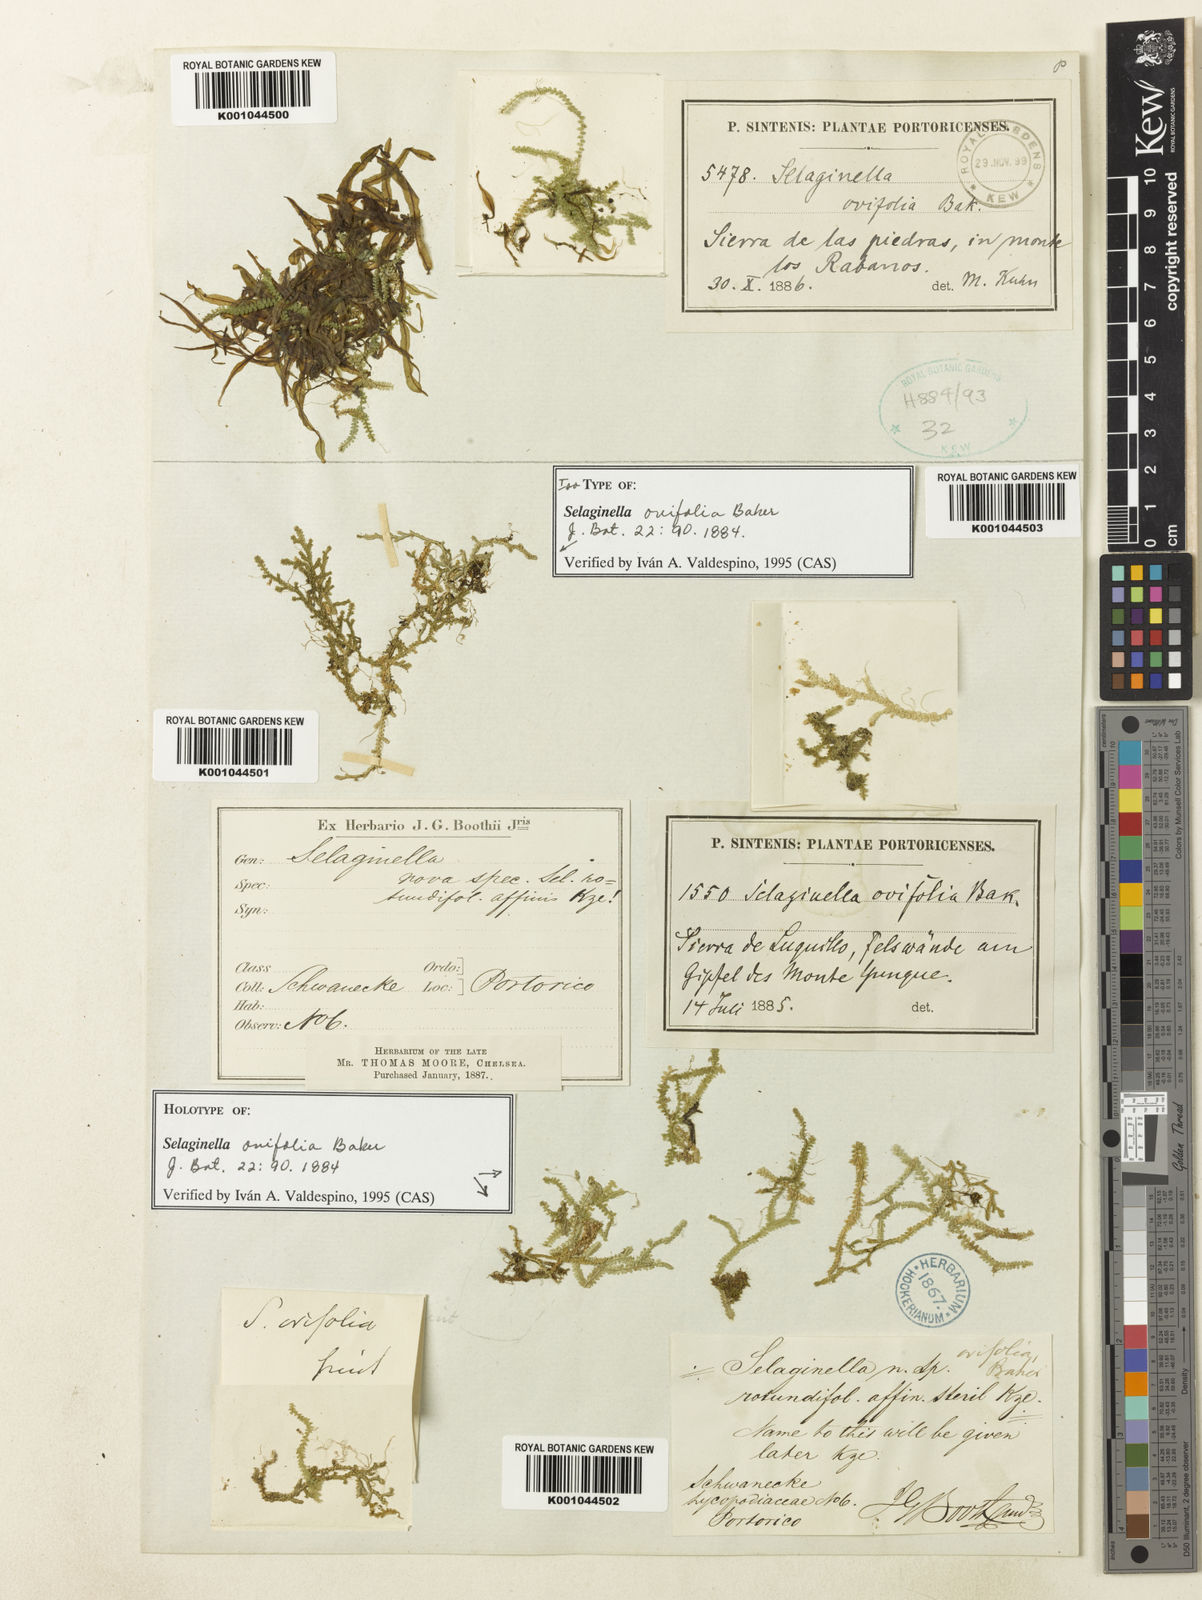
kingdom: Plantae
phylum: Tracheophyta
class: Lycopodiopsida
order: Selaginellales
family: Selaginellaceae
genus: Selaginella
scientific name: Selaginella ovifolia
